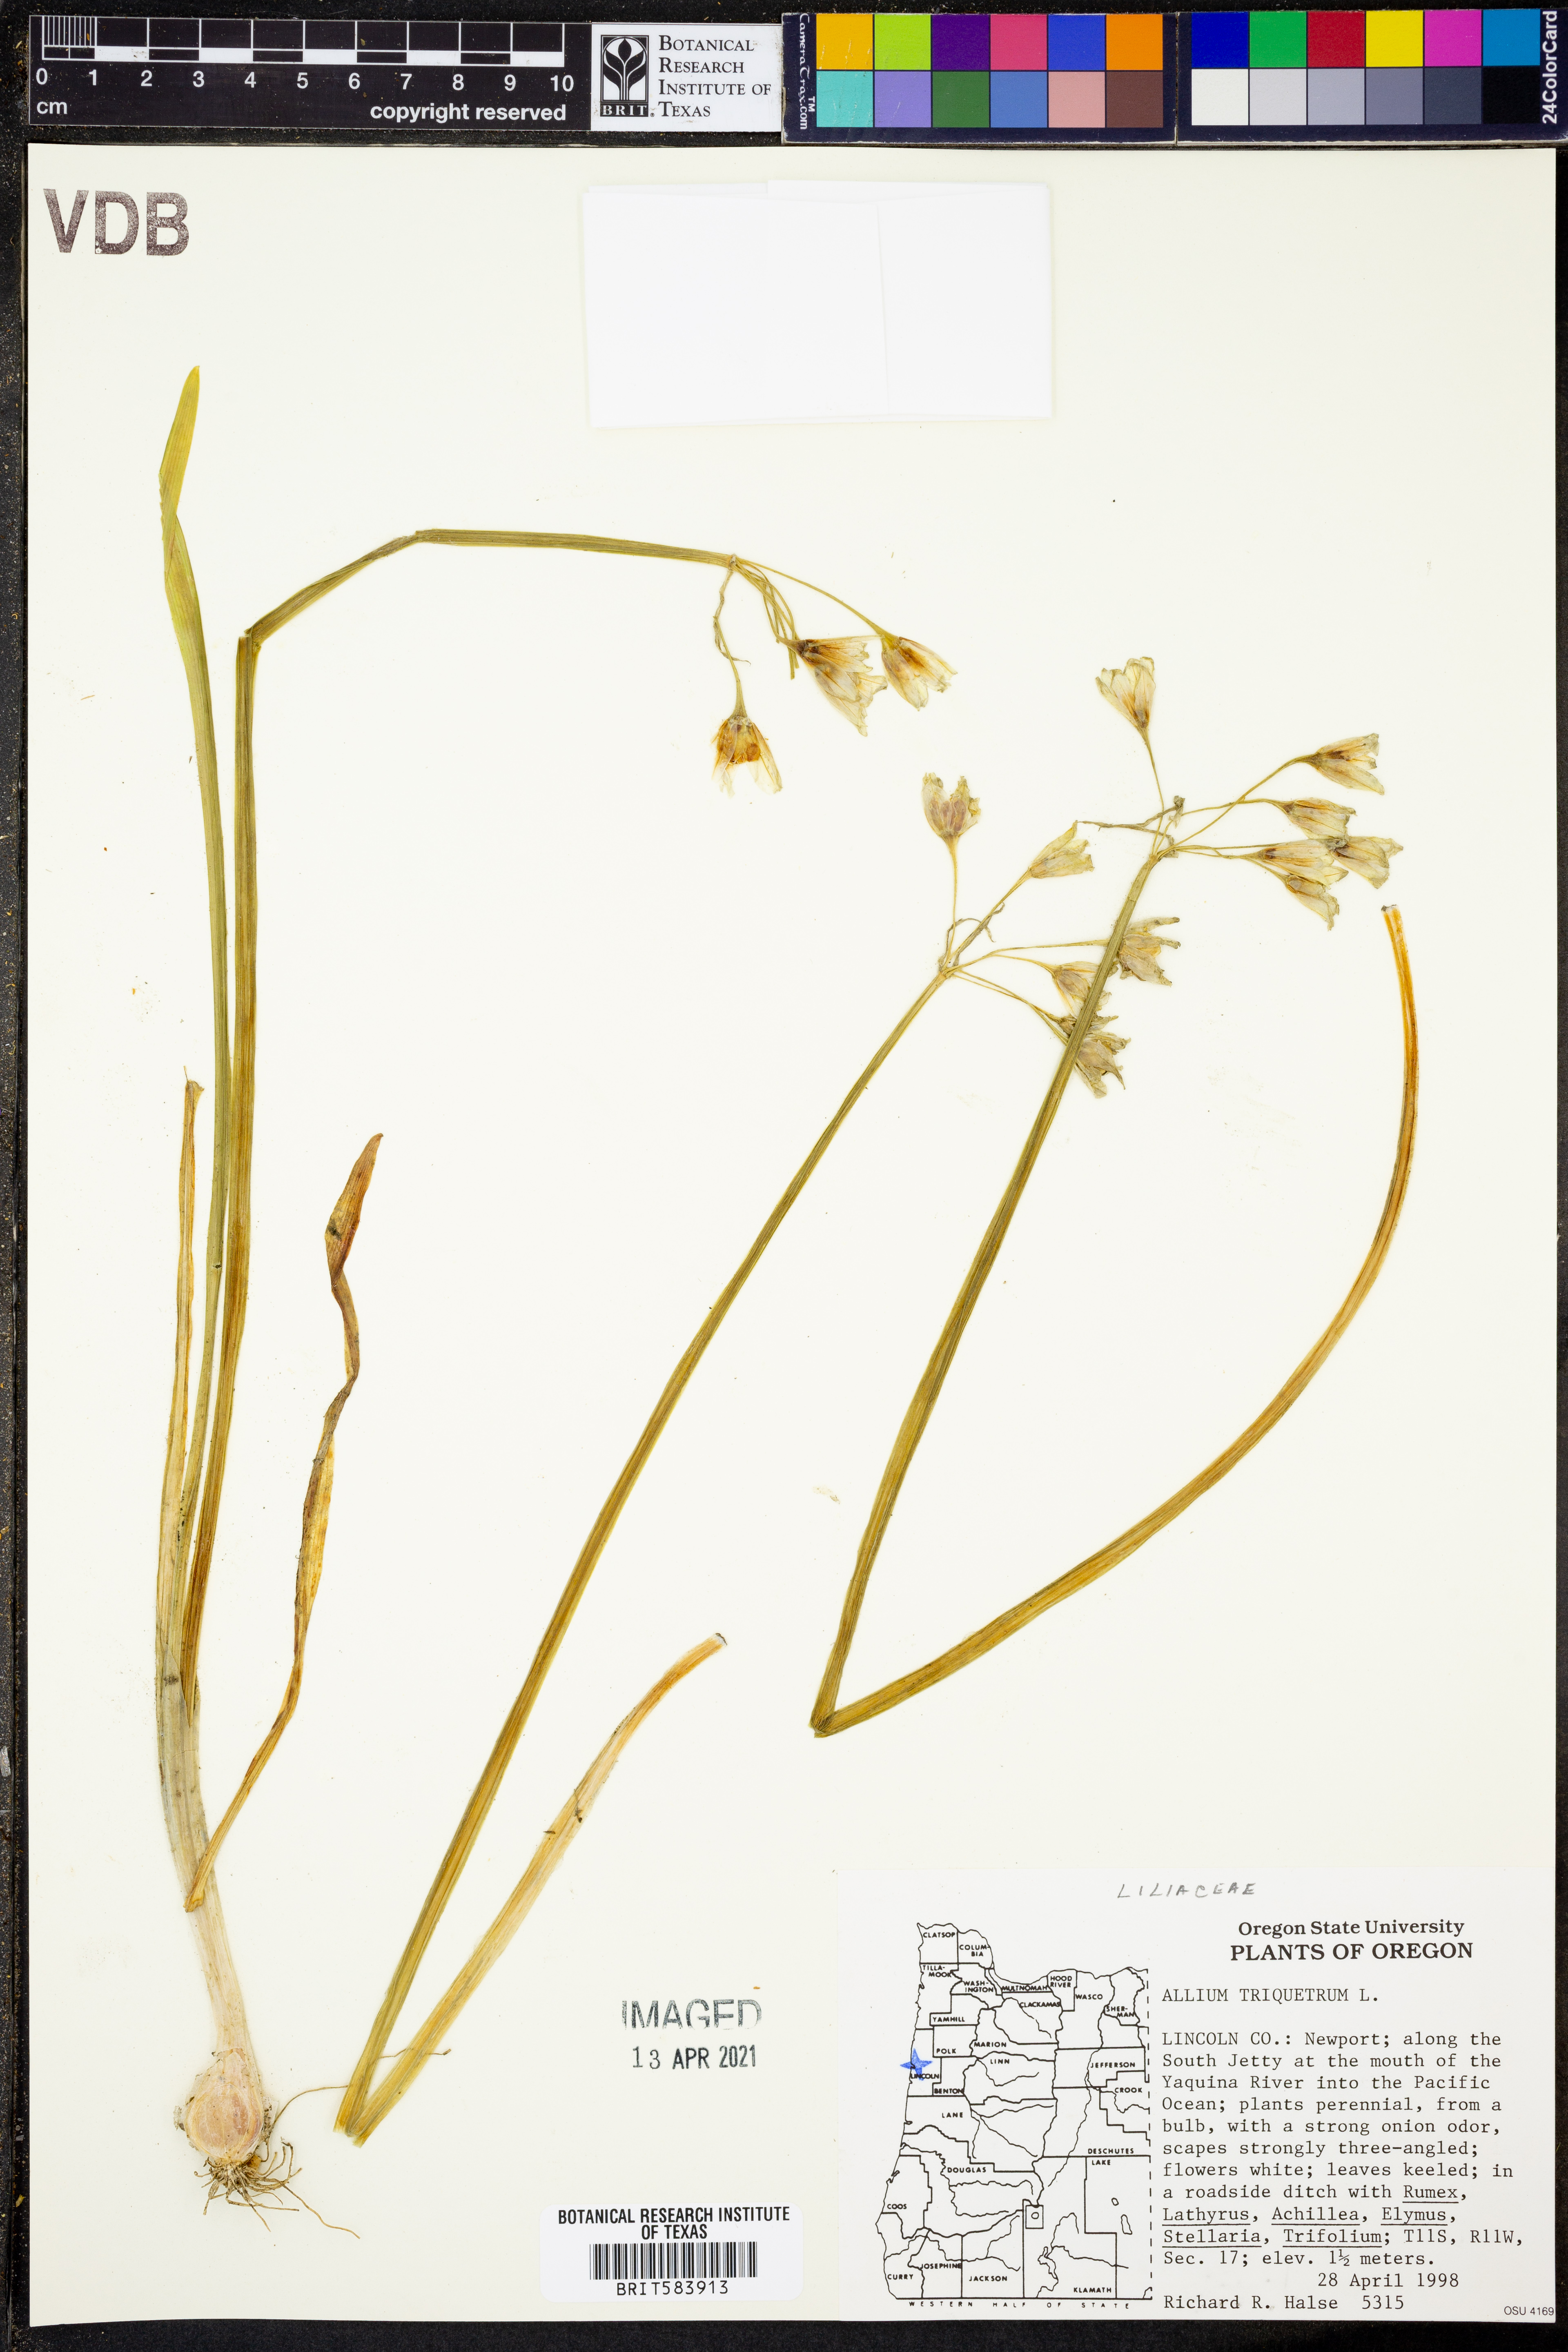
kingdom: Plantae
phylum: Tracheophyta
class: Liliopsida
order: Asparagales
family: Amaryllidaceae
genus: Allium
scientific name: Allium triquetrum
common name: Three-cornered garlic
